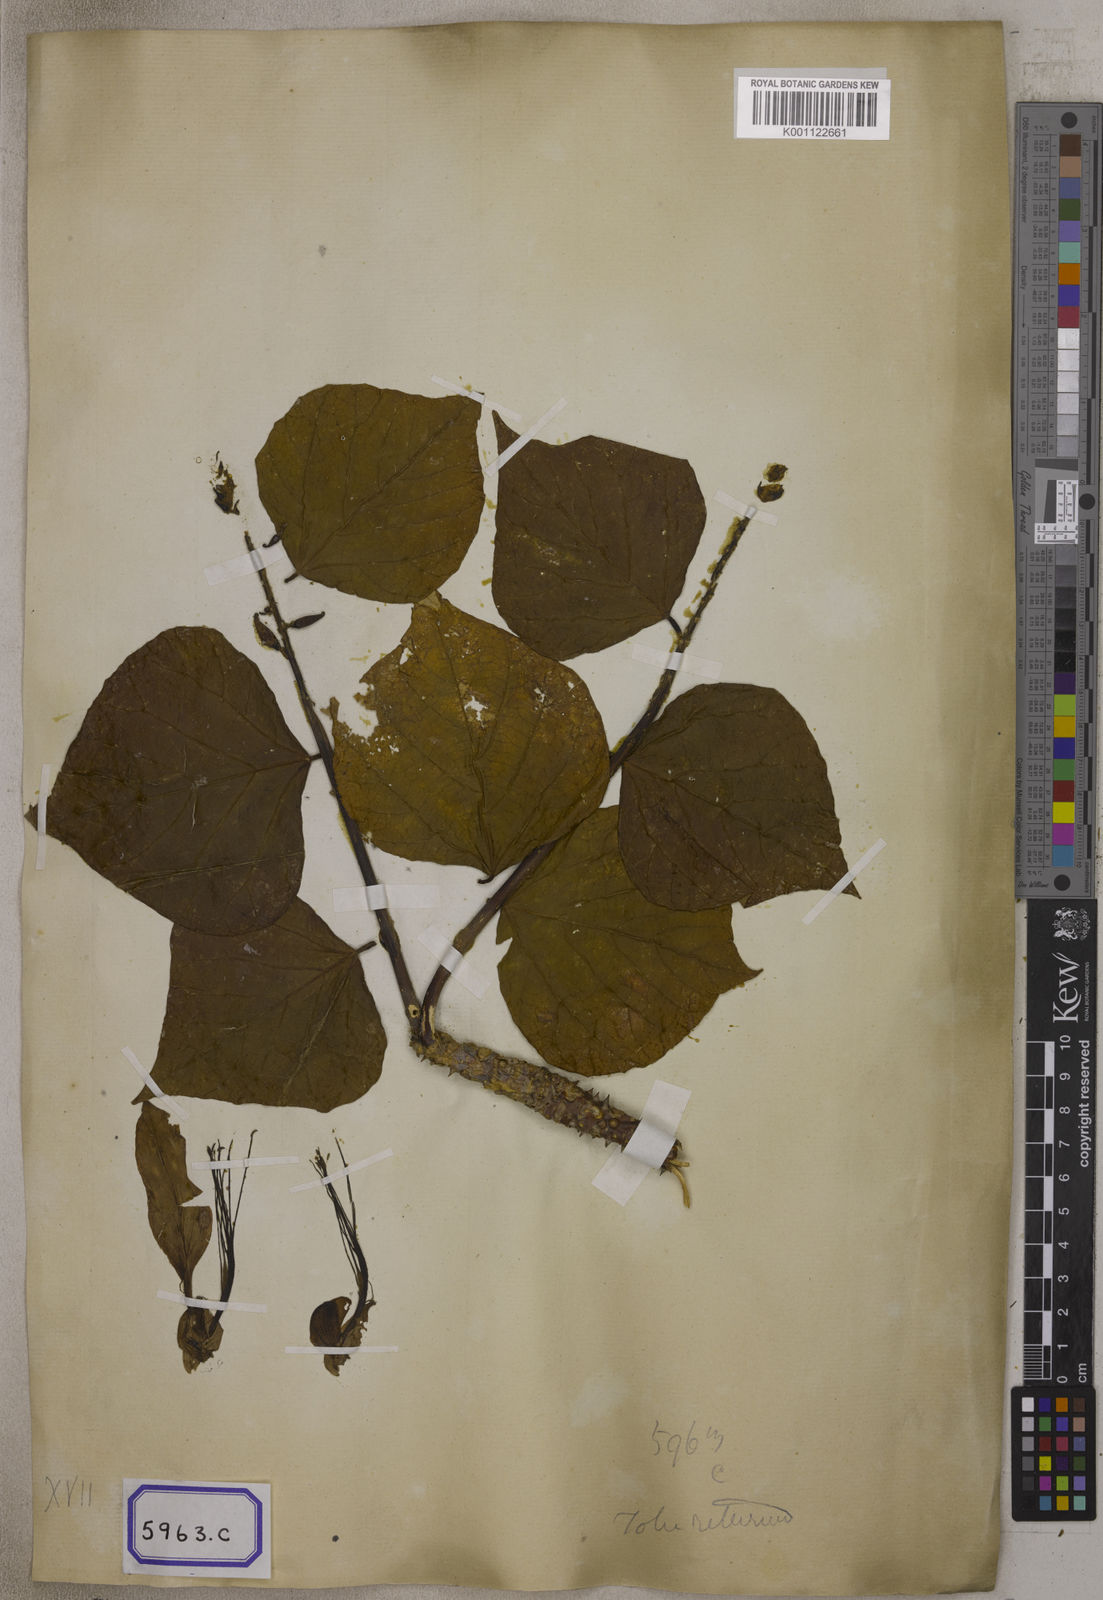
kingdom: Plantae
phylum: Tracheophyta
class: Magnoliopsida
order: Fabales
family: Fabaceae
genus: Erythrina
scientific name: Erythrina variegata
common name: Indian coral tree
